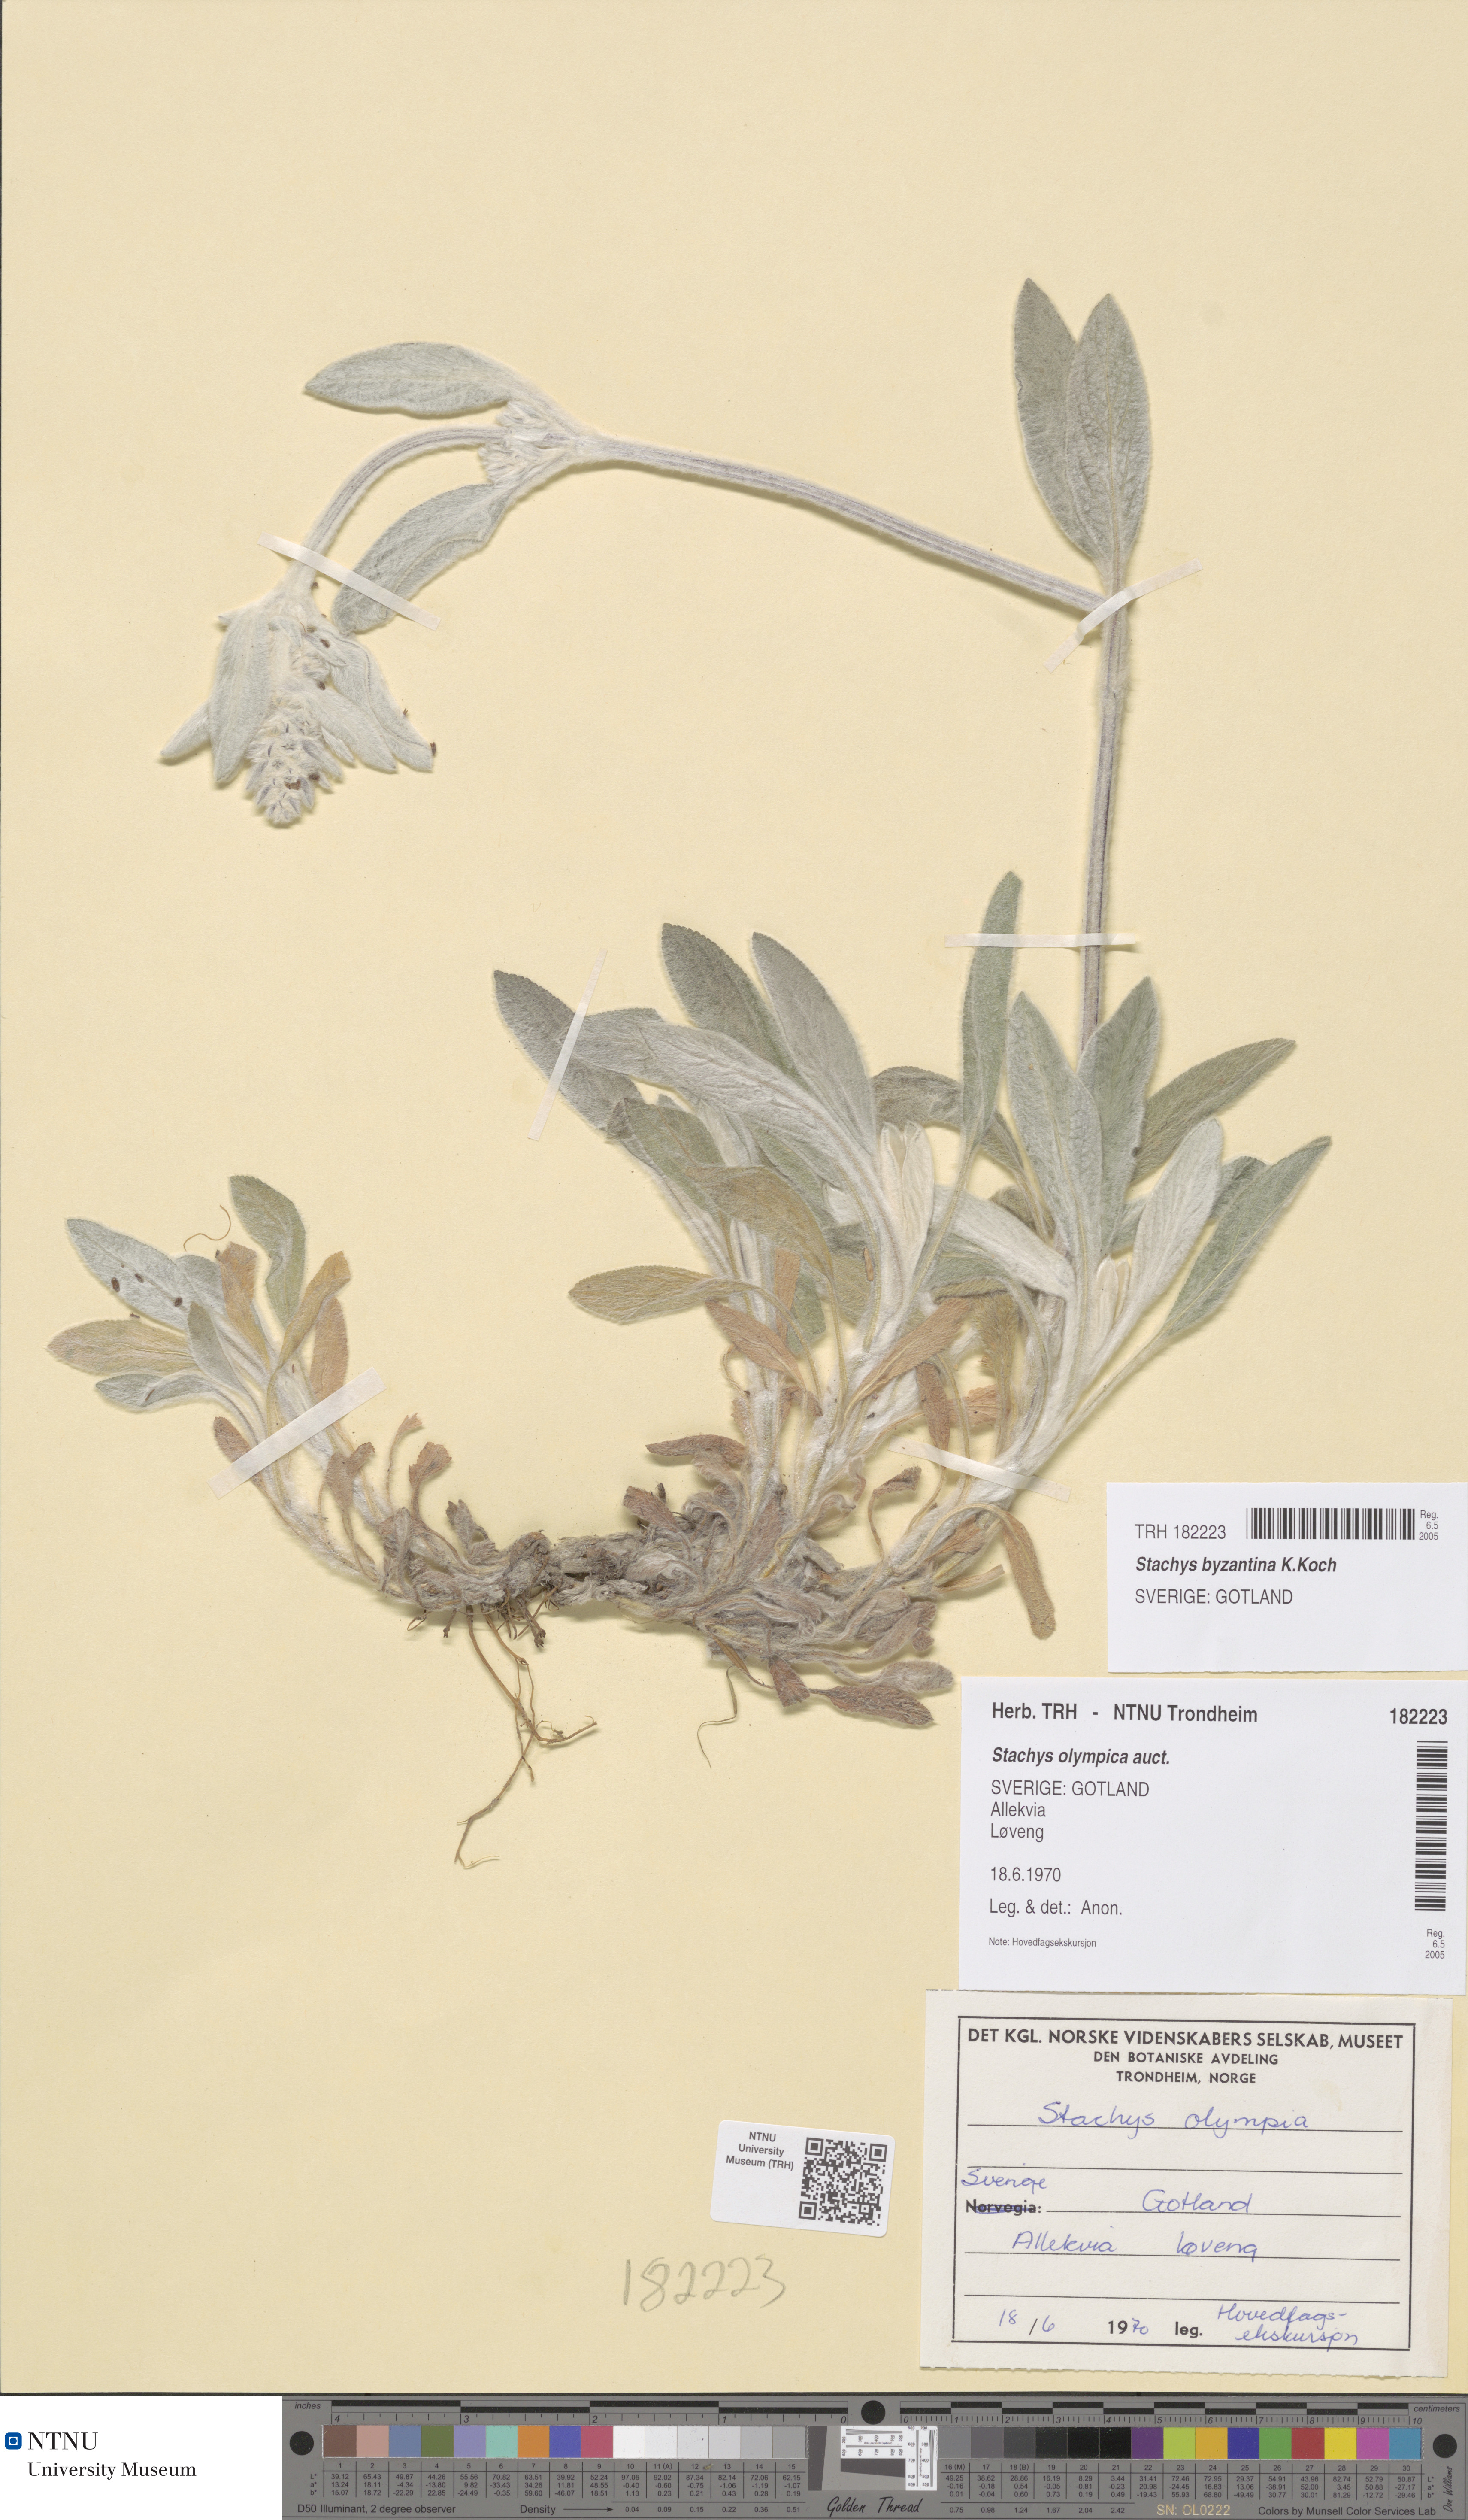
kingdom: Plantae
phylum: Tracheophyta
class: Magnoliopsida
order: Lamiales
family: Lamiaceae
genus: Stachys
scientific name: Stachys byzantina
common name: Lamb's-ear
